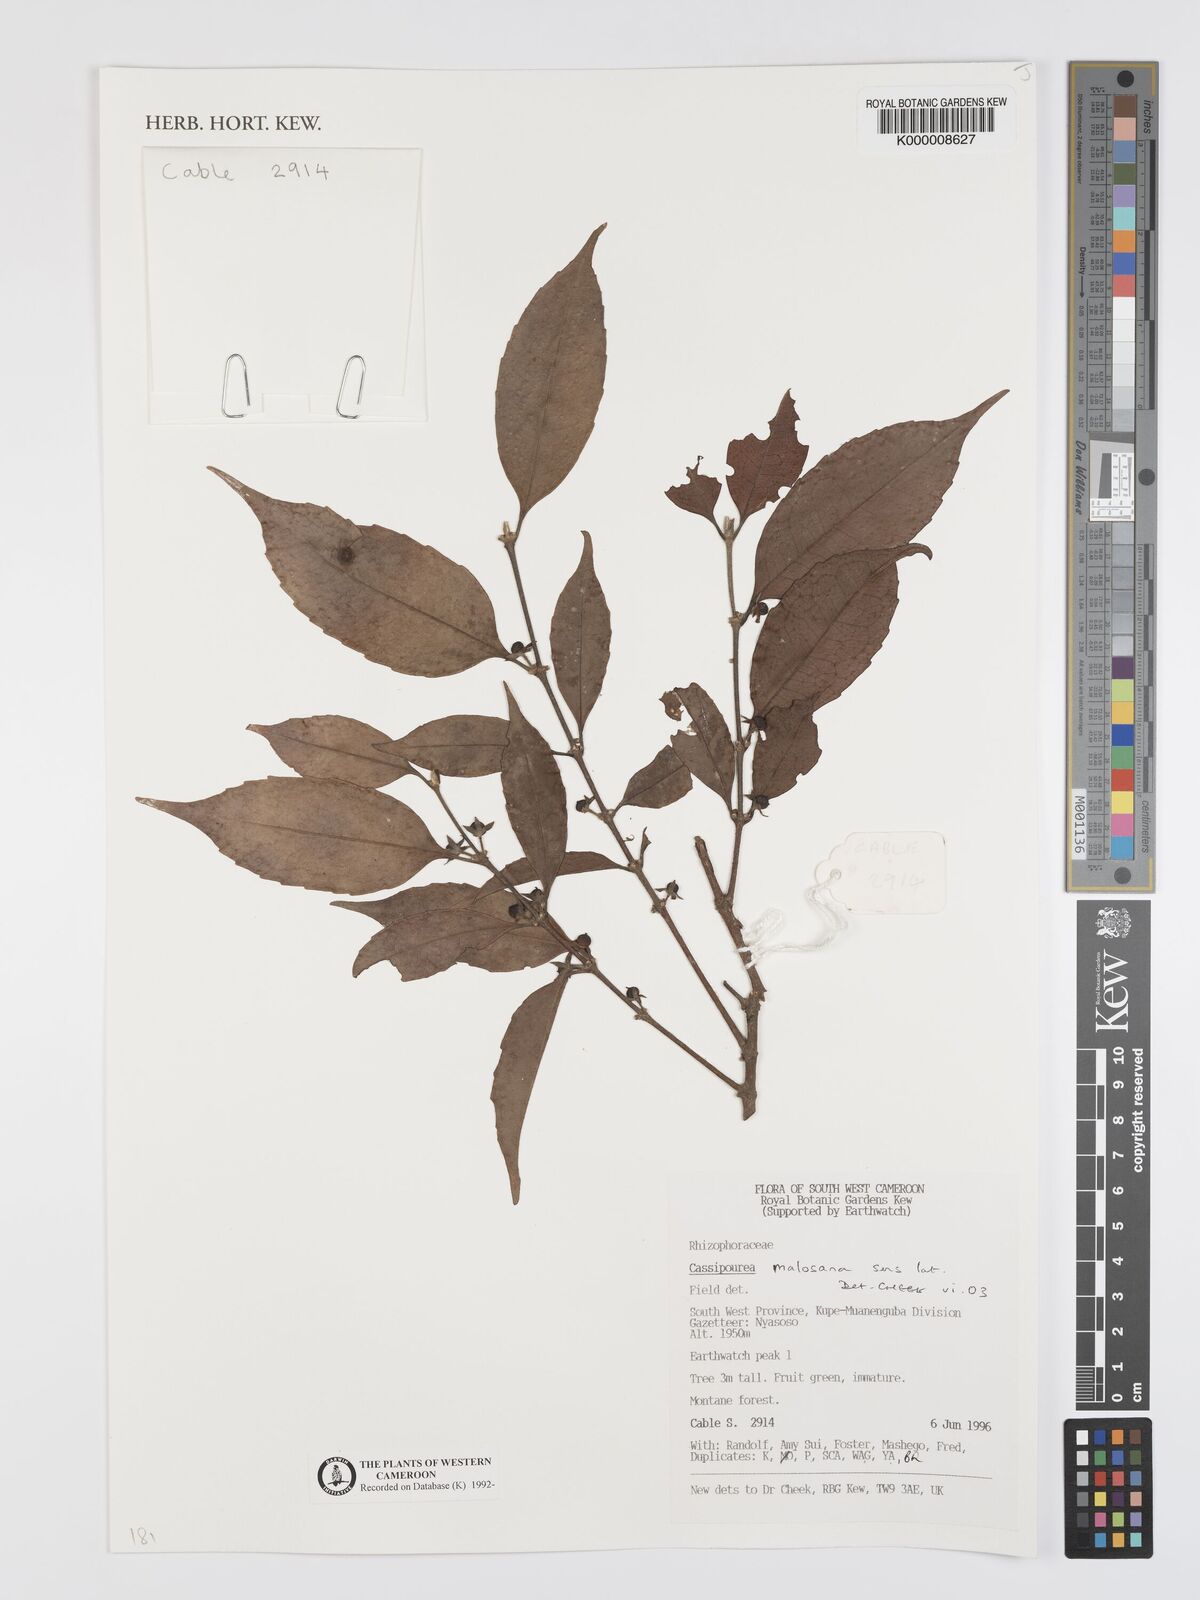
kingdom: Plantae
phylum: Tracheophyta
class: Magnoliopsida
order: Malpighiales
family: Rhizophoraceae
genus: Cassipourea
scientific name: Cassipourea malosana
